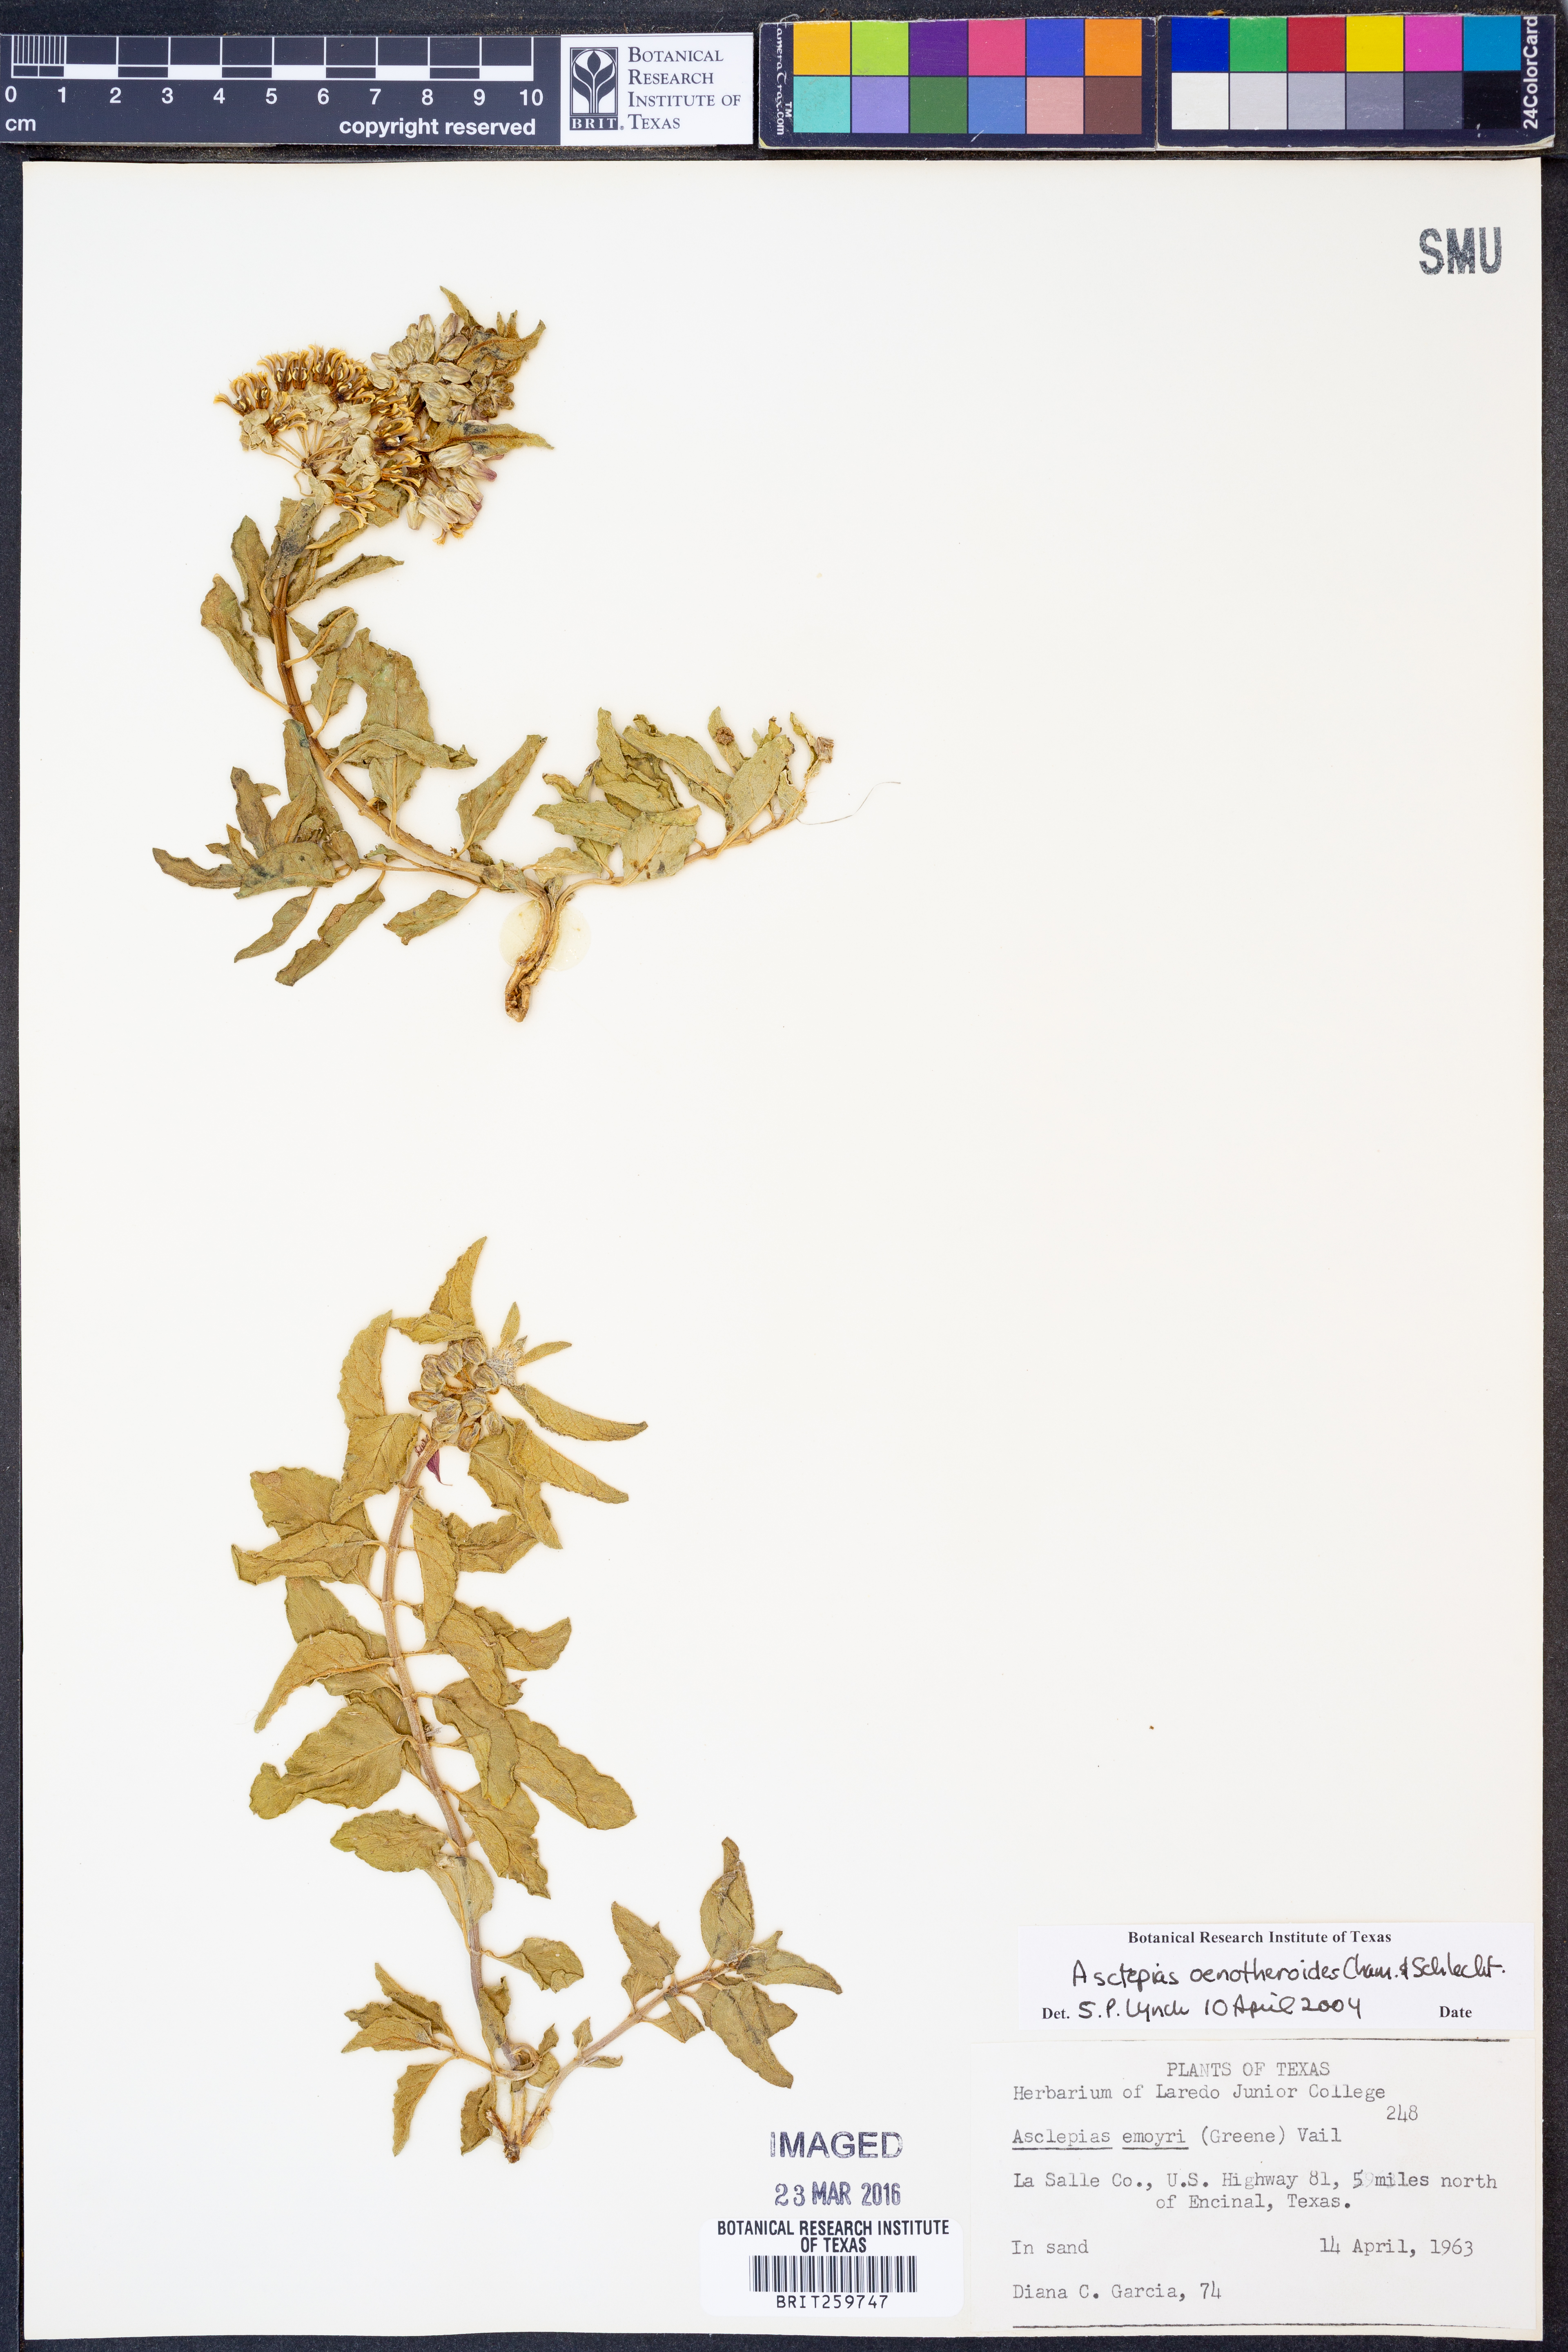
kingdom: Plantae
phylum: Tracheophyta
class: Magnoliopsida
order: Gentianales
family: Apocynaceae
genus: Asclepias
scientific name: Asclepias oenotheroides
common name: Zizotes milkweed
